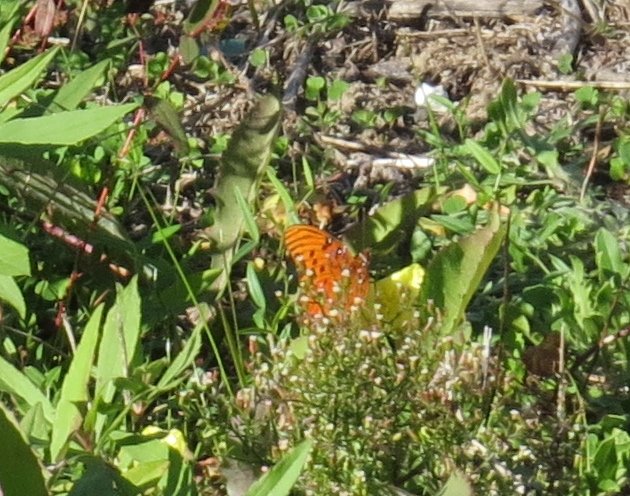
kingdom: Animalia
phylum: Arthropoda
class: Insecta
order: Lepidoptera
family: Nymphalidae
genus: Dione
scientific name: Dione vanillae
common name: Gulf Fritillary
